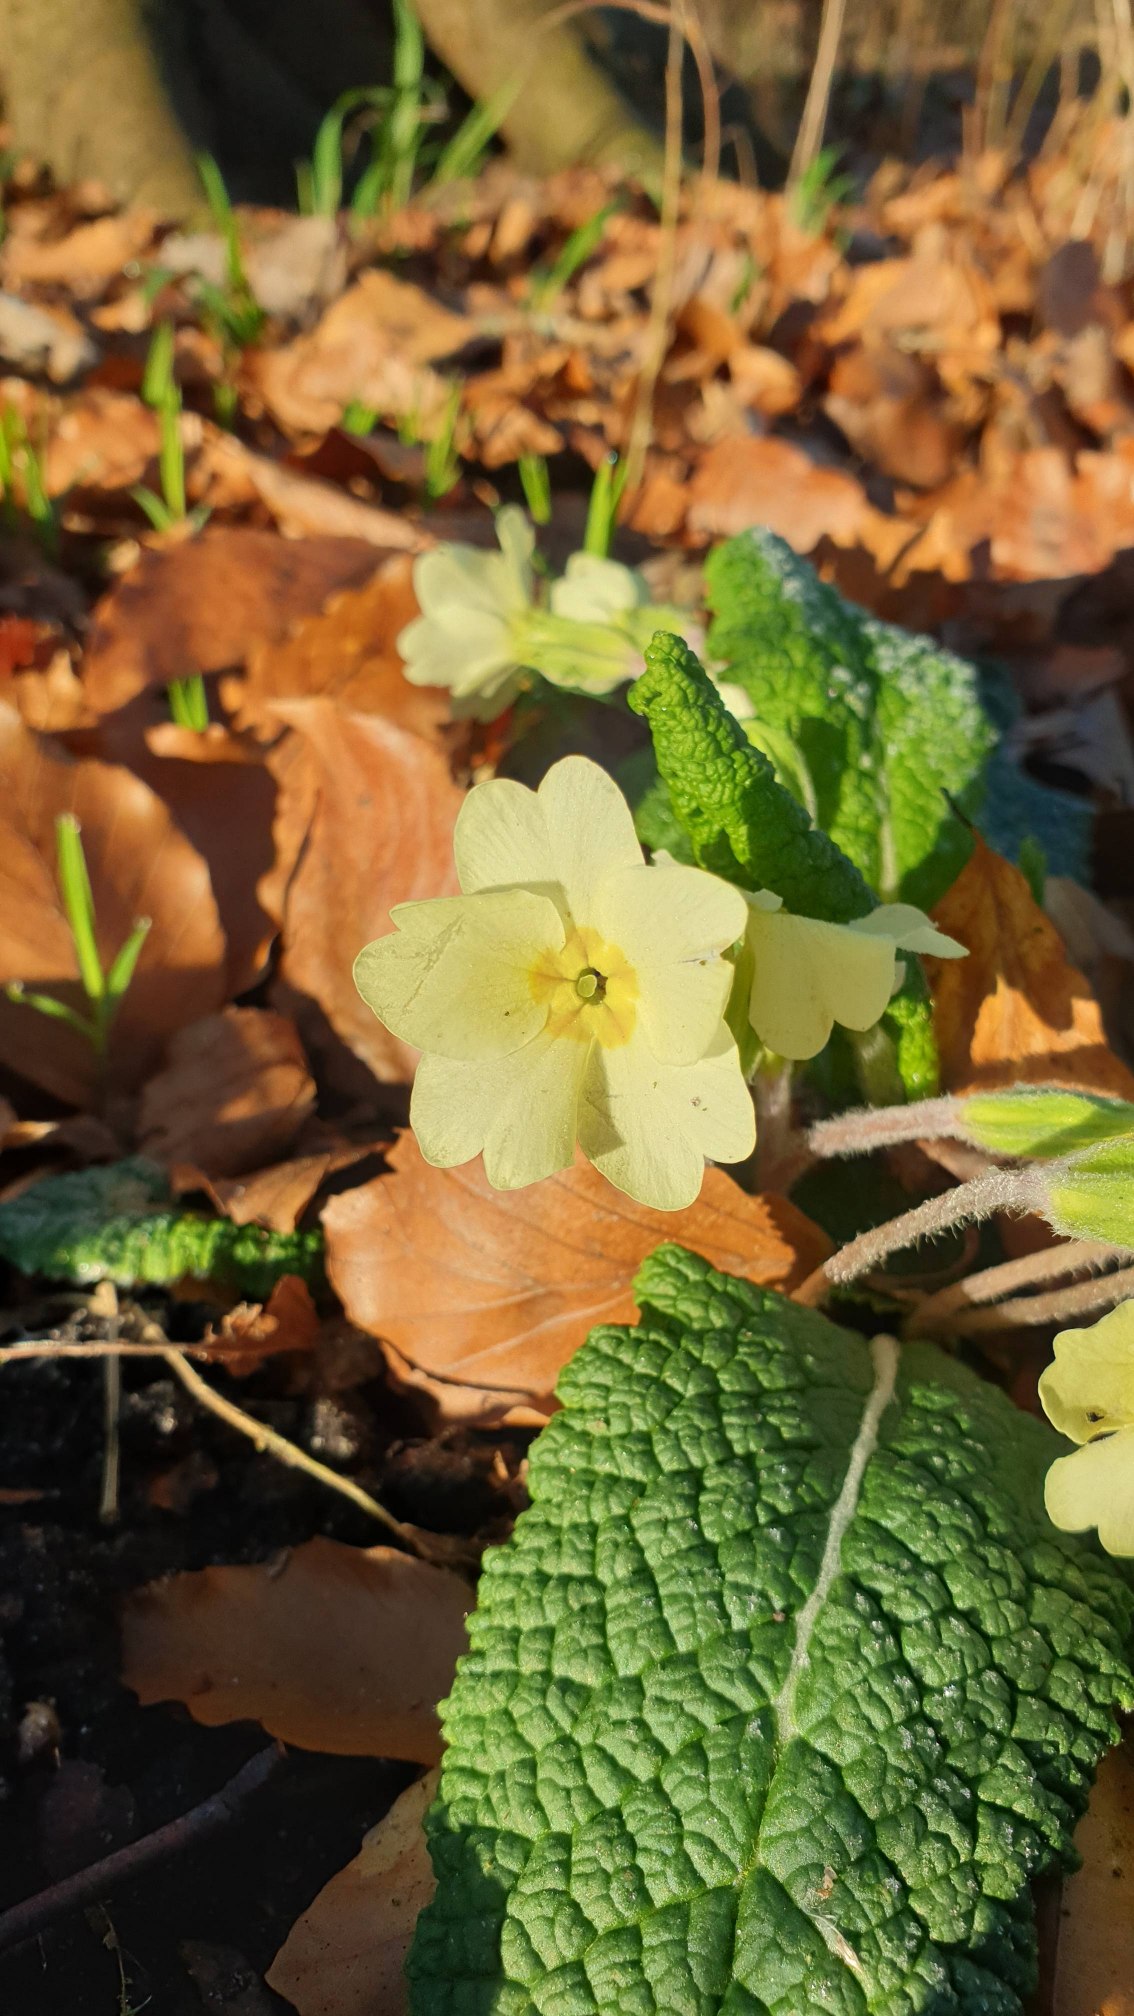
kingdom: Plantae
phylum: Tracheophyta
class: Magnoliopsida
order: Ericales
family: Primulaceae
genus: Primula
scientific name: Primula vulgaris
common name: Storblomstret kodriver
